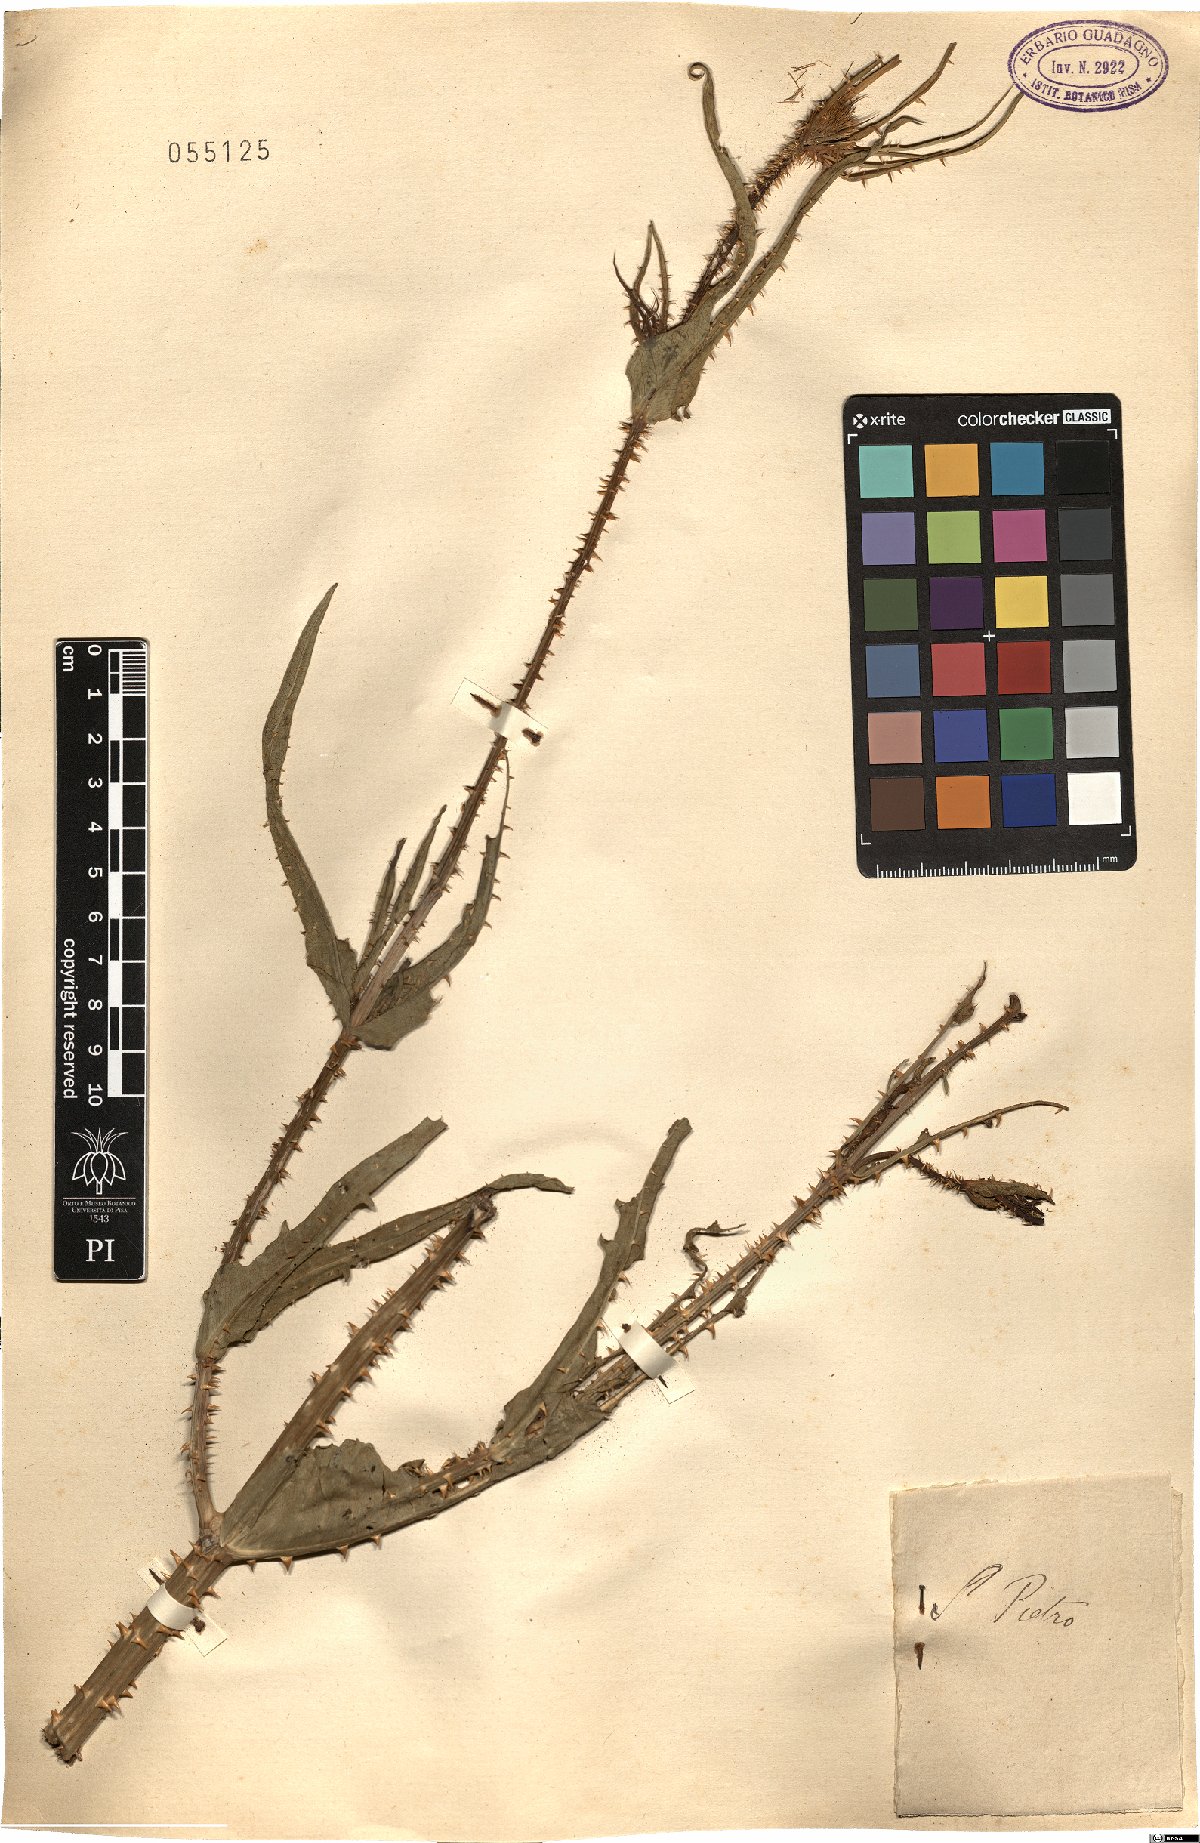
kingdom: Plantae
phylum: Tracheophyta
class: Magnoliopsida
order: Dipsacales
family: Caprifoliaceae
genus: Morina
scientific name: Morina
